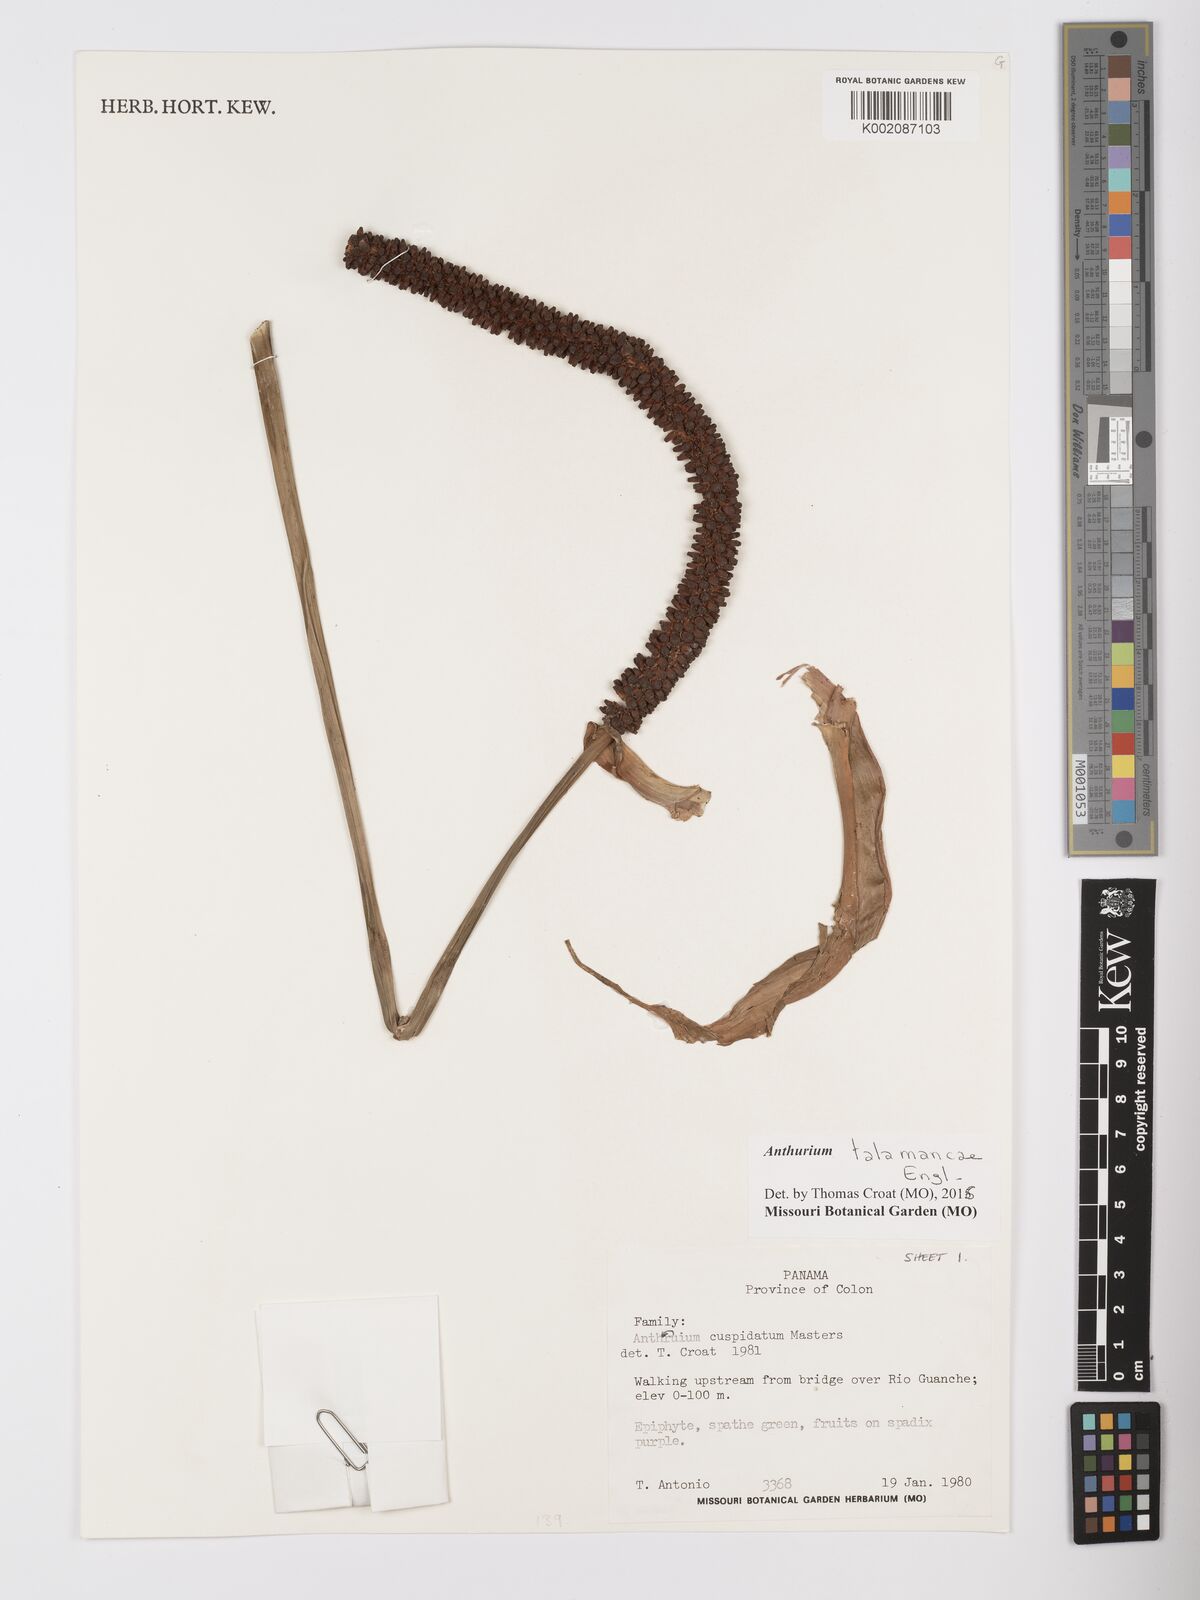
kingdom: Plantae
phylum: Tracheophyta
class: Liliopsida
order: Alismatales
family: Araceae
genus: Anthurium
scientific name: Anthurium talamancae
